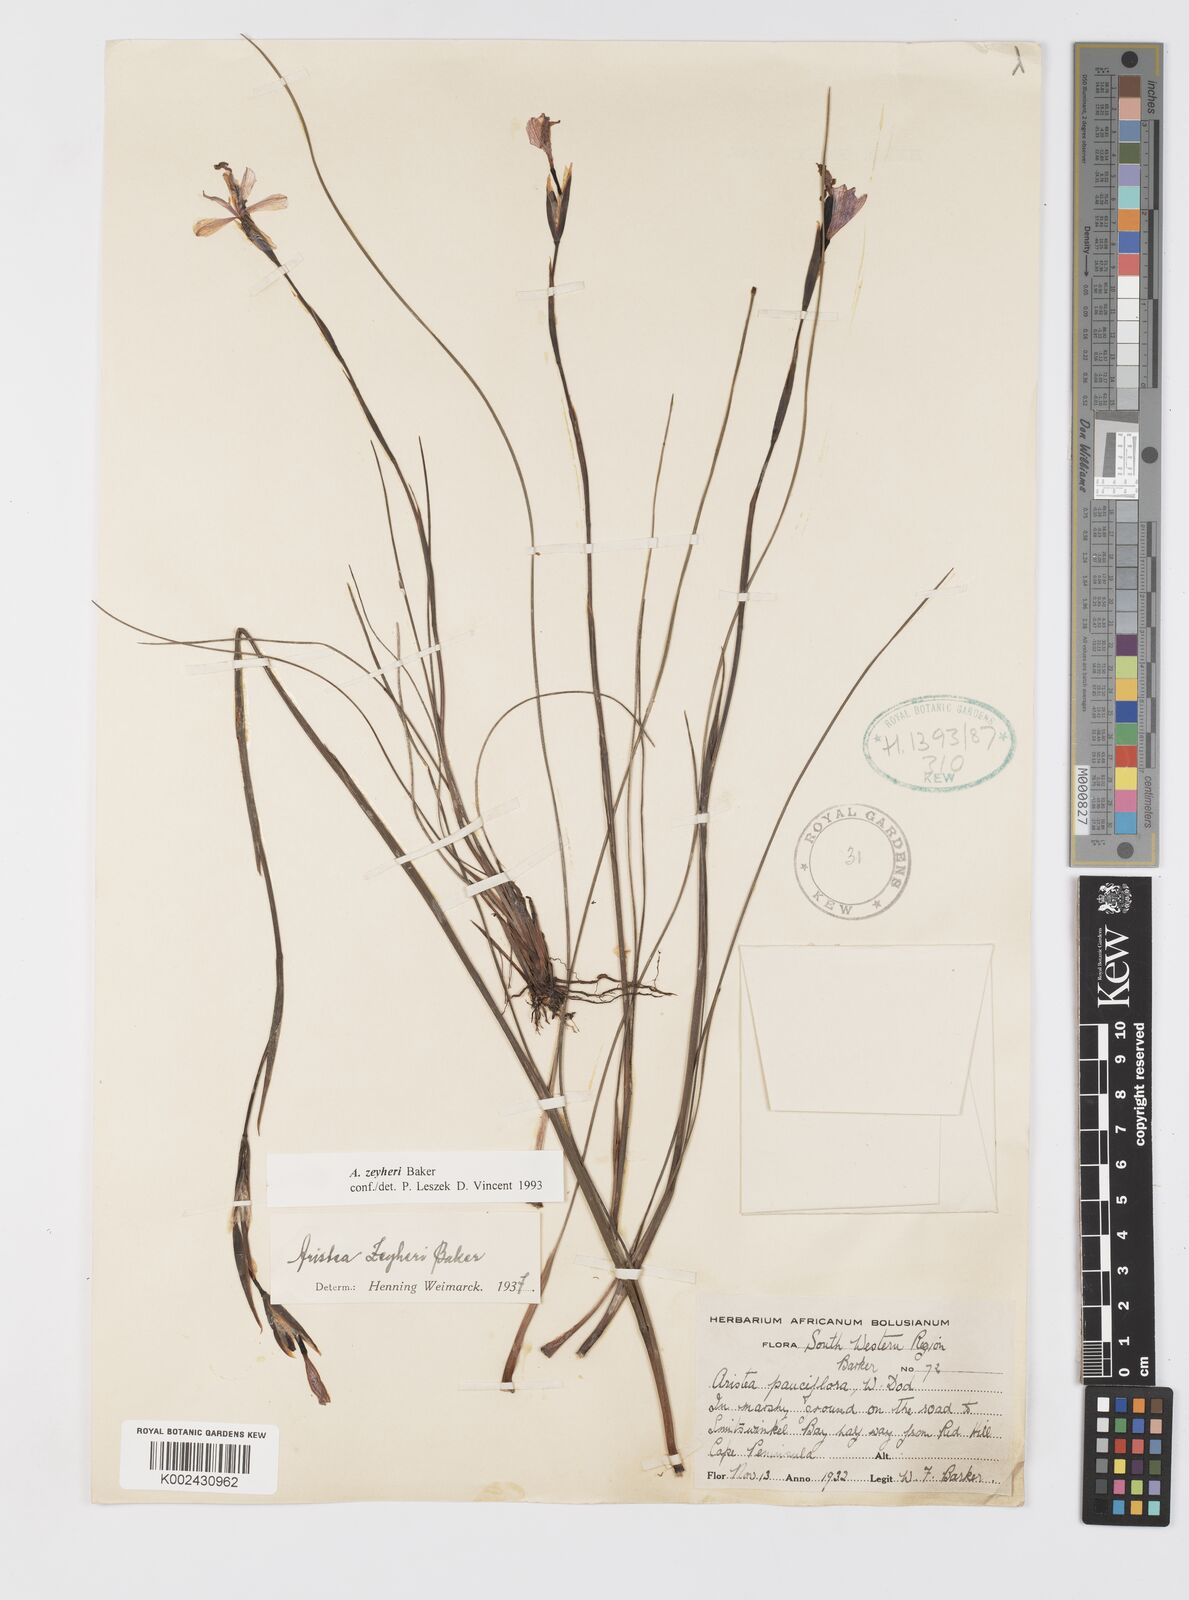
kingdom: Plantae
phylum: Tracheophyta
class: Liliopsida
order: Asparagales
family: Iridaceae
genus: Aristea
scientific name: Aristea zeyheri
